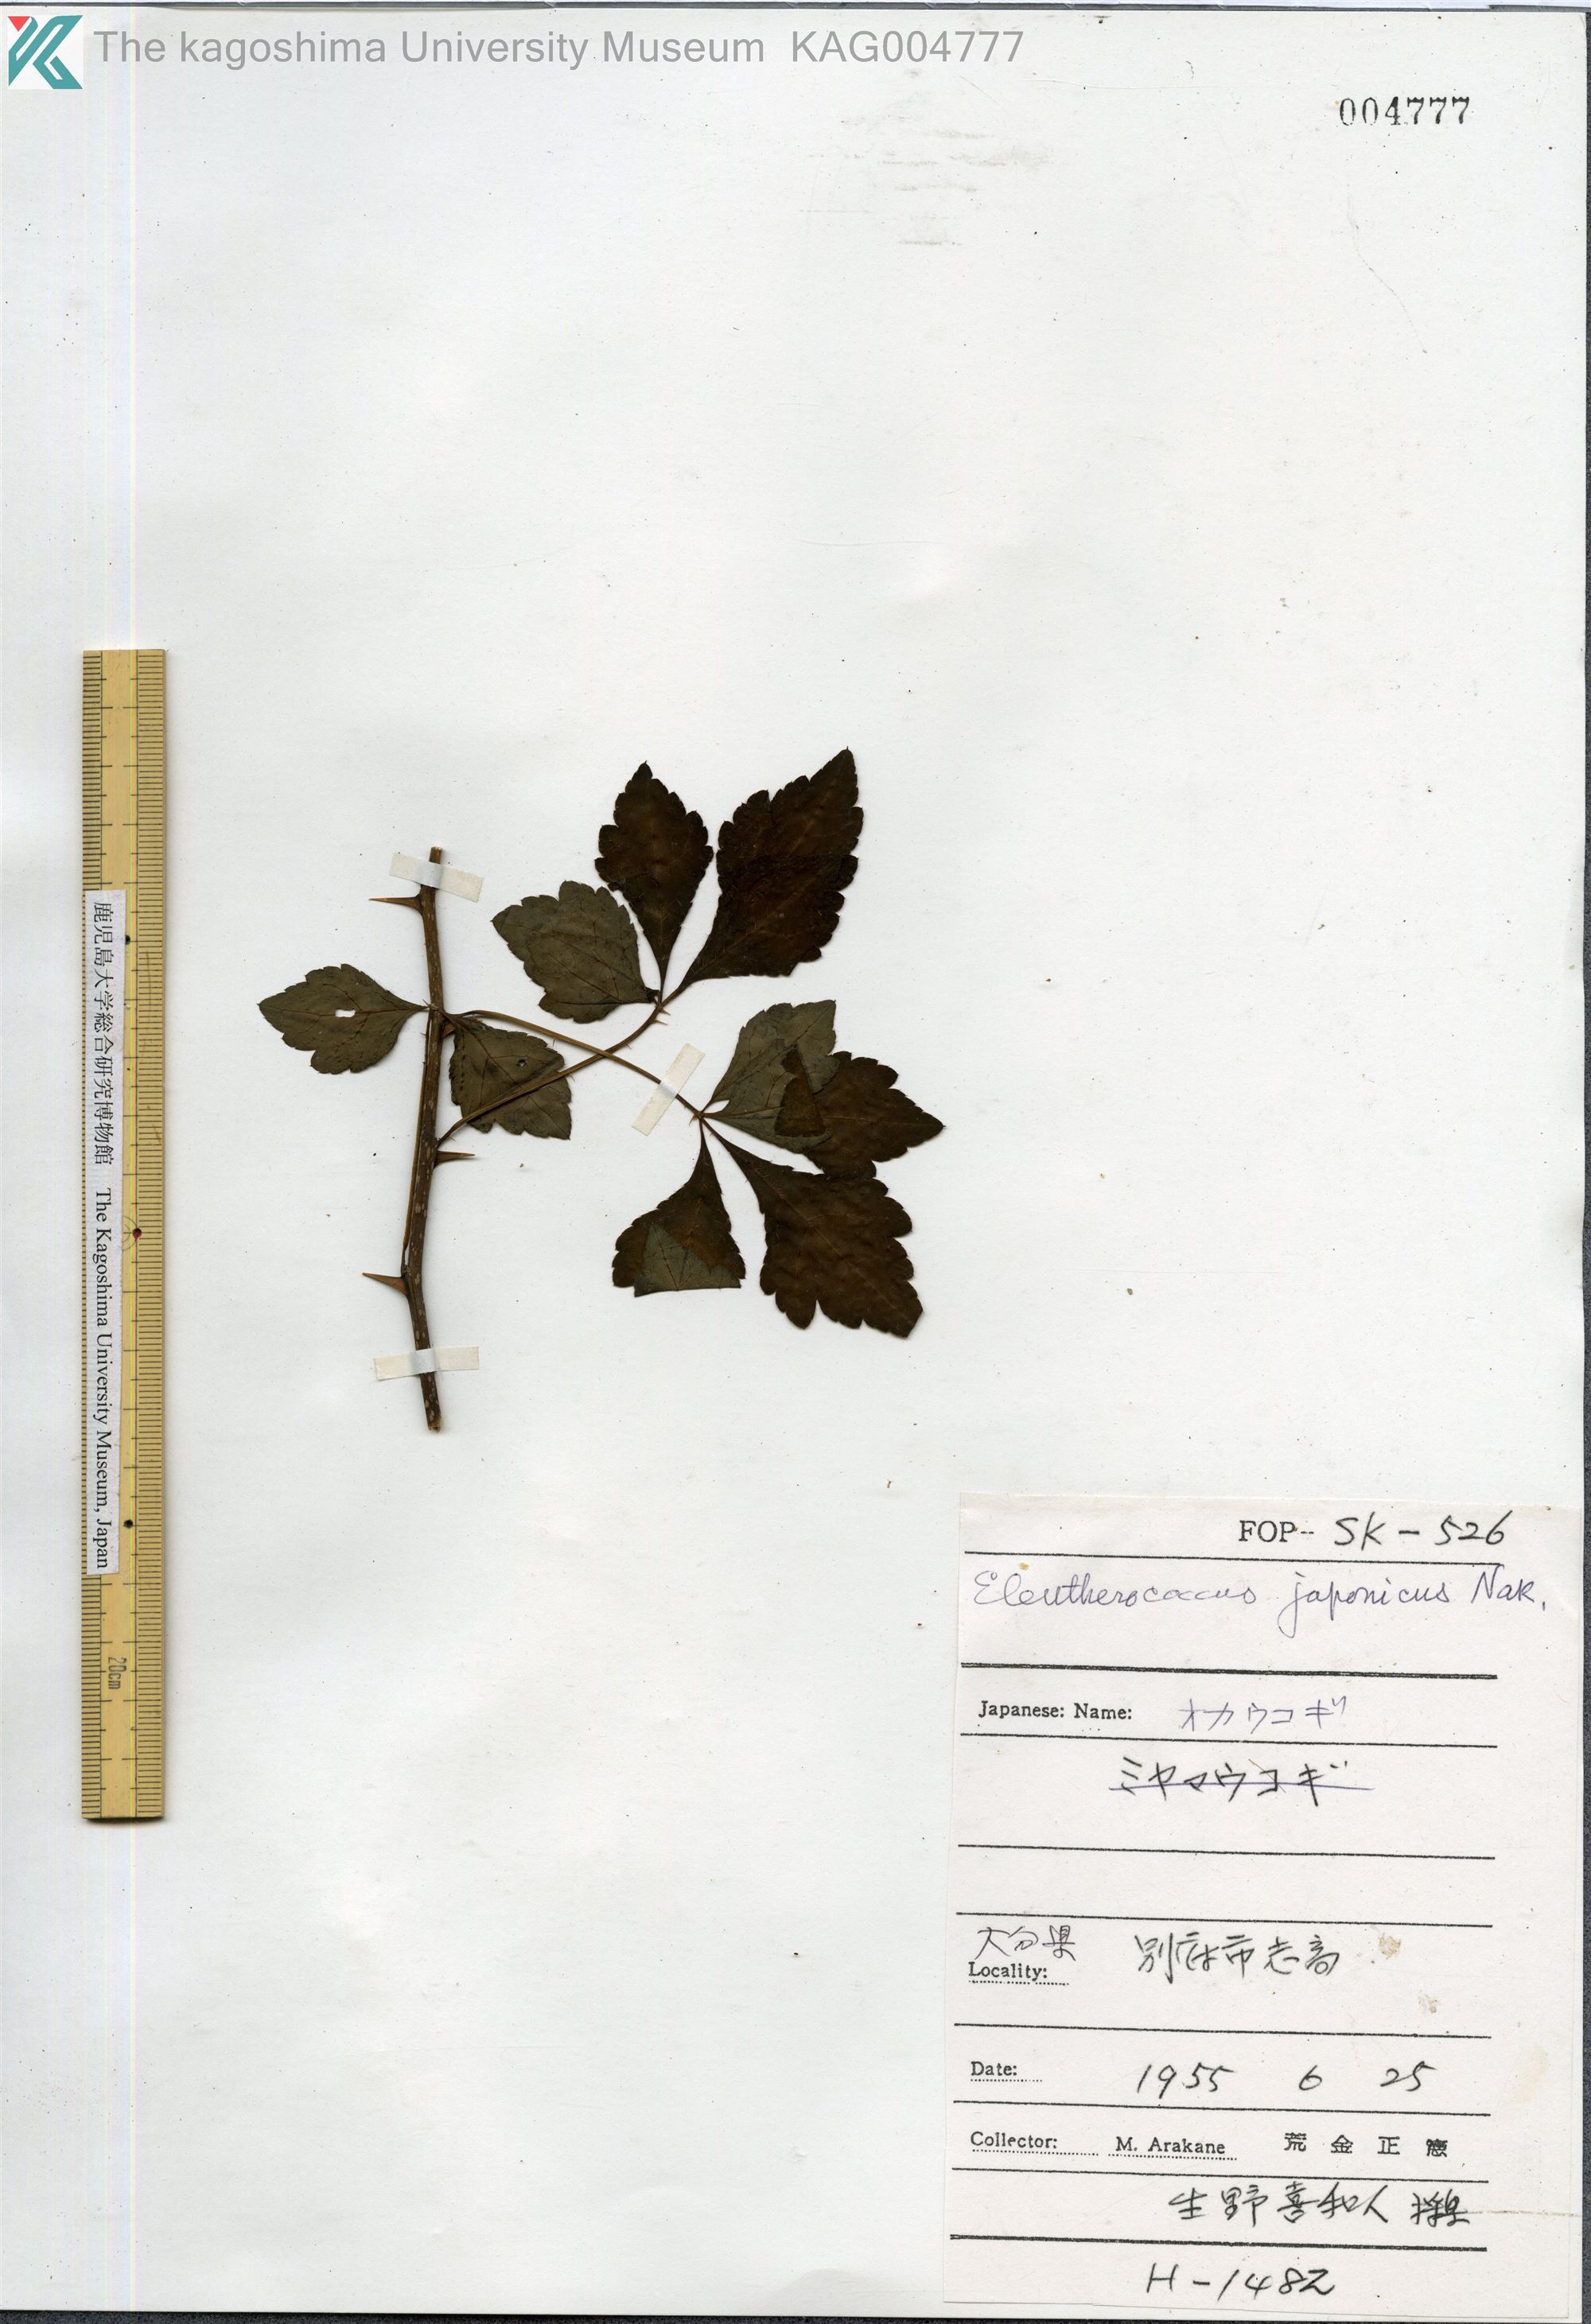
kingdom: Plantae
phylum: Tracheophyta
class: Magnoliopsida
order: Apiales
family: Araliaceae
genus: Eleutherococcus
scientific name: Eleutherococcus japonicus
